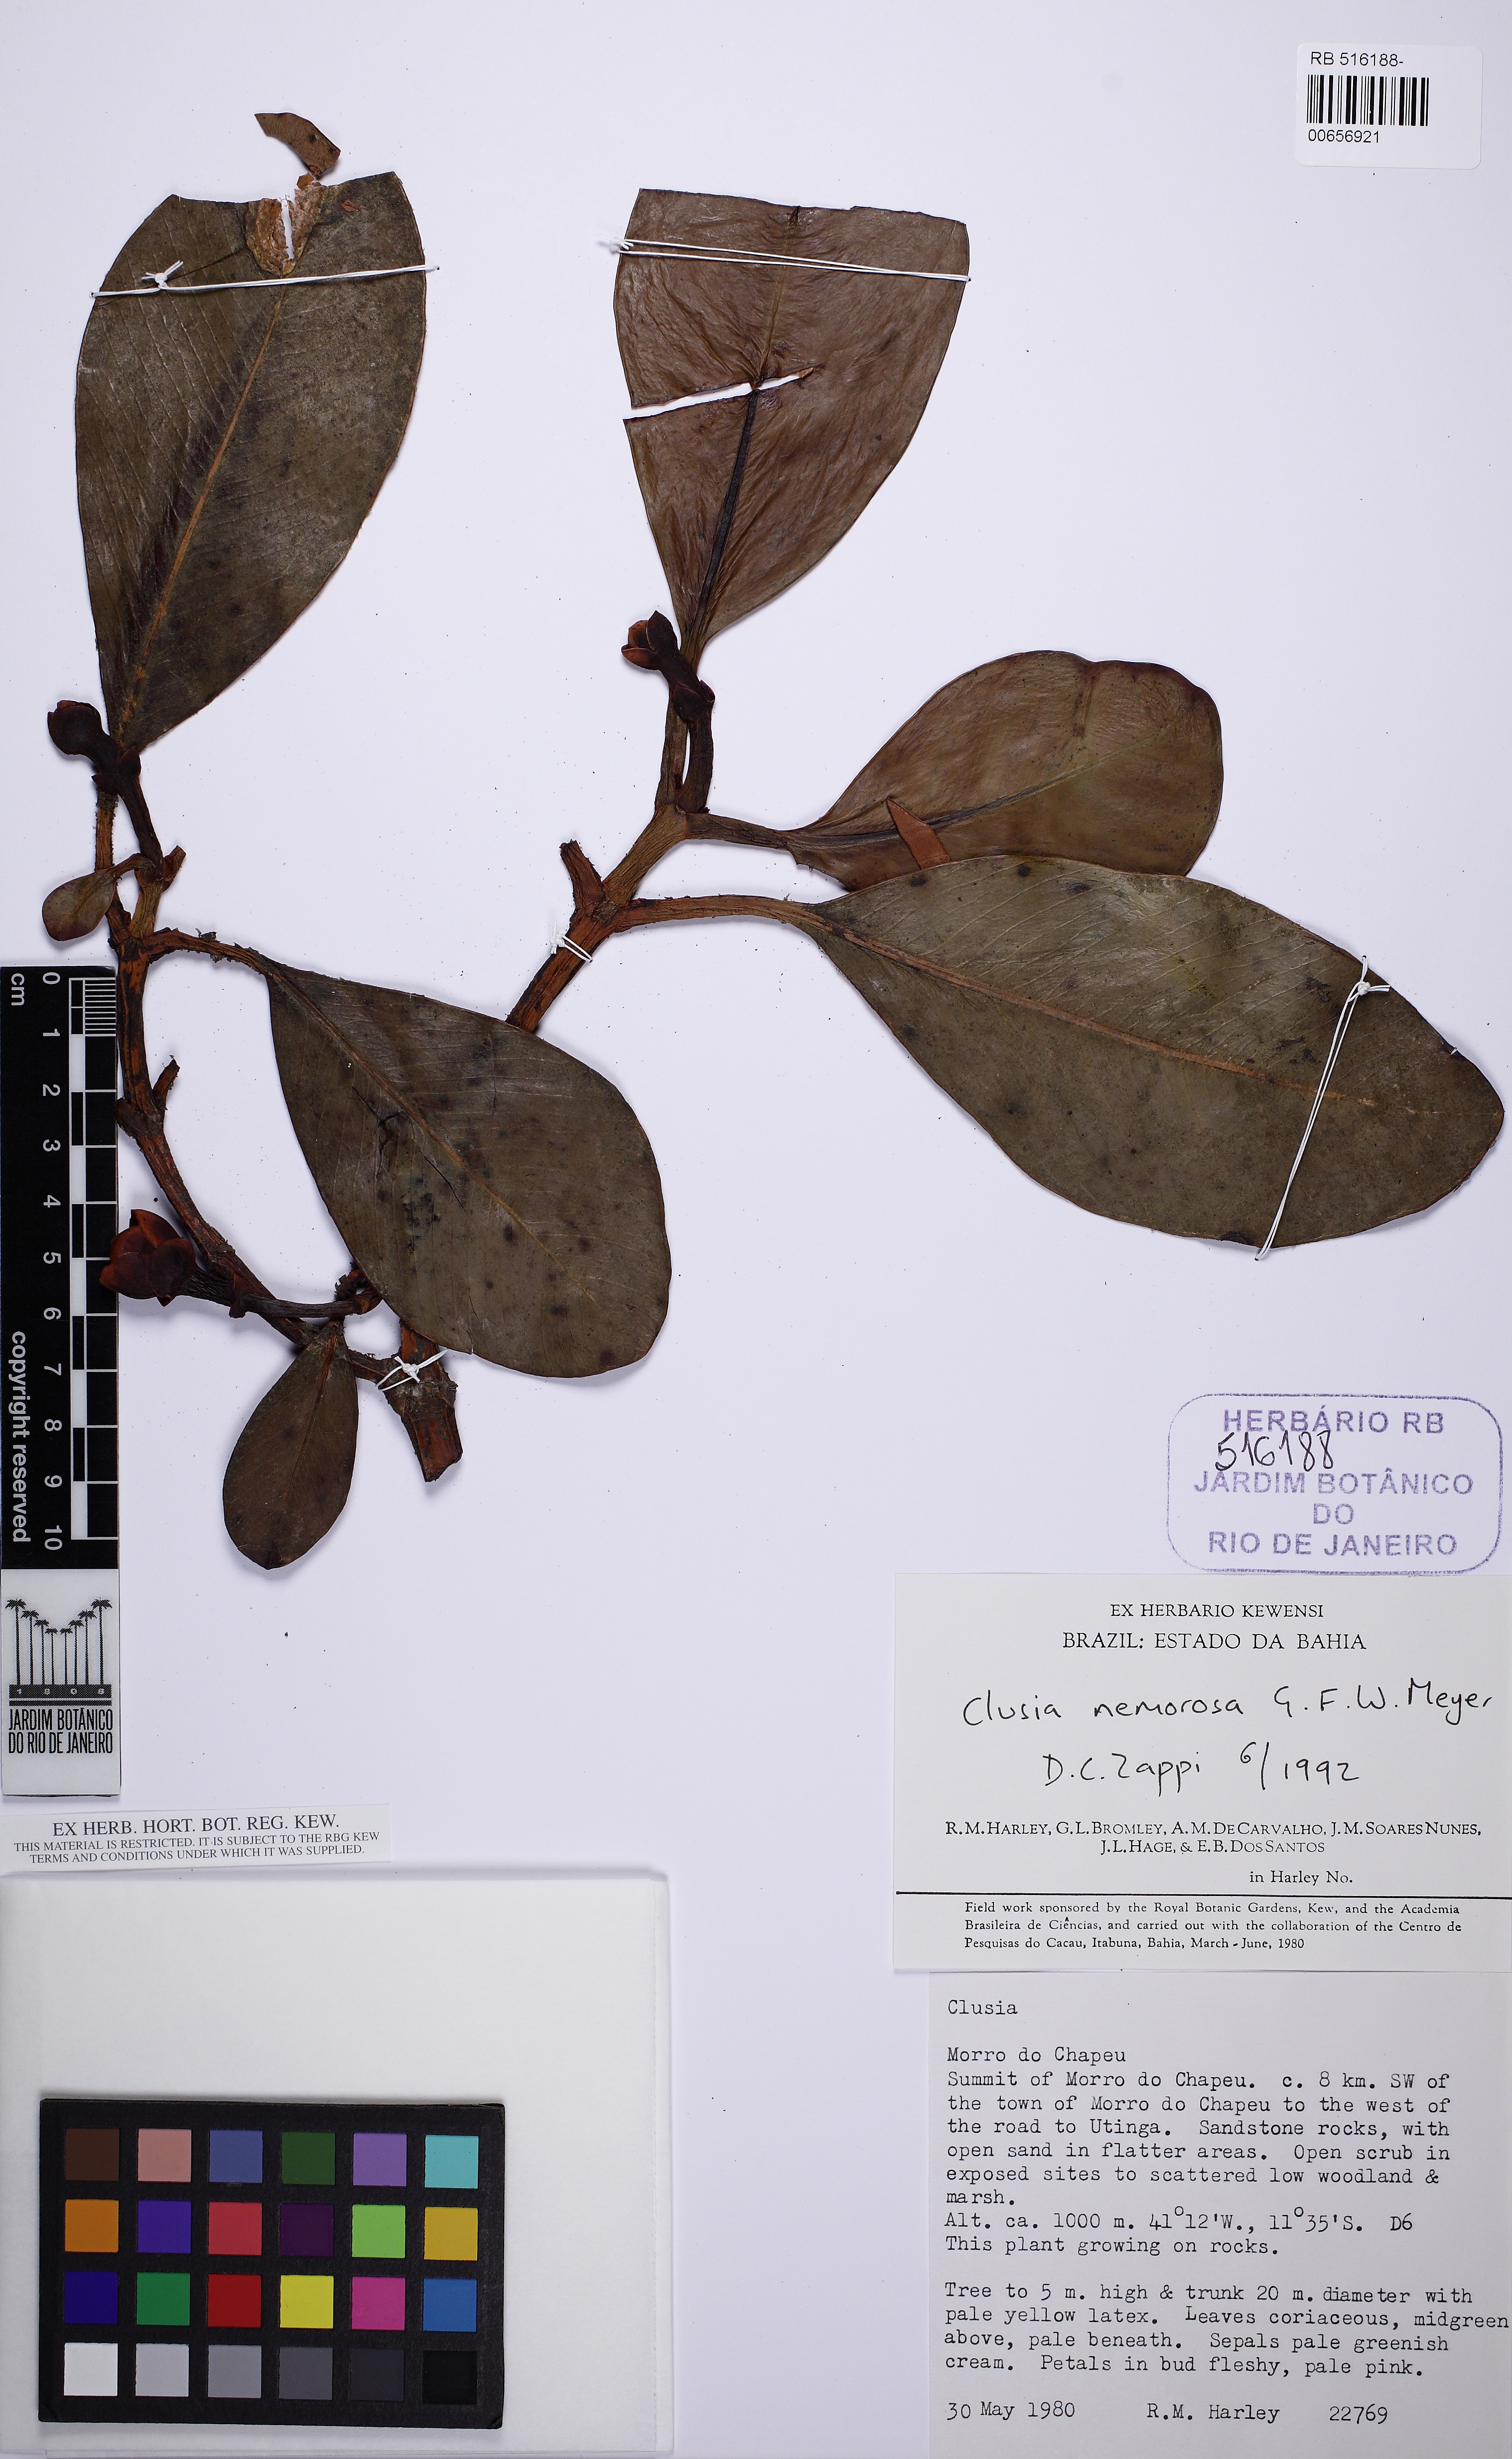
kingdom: Plantae
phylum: Tracheophyta
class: Magnoliopsida
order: Malpighiales
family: Clusiaceae
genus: Clusia
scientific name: Clusia nemorosa
